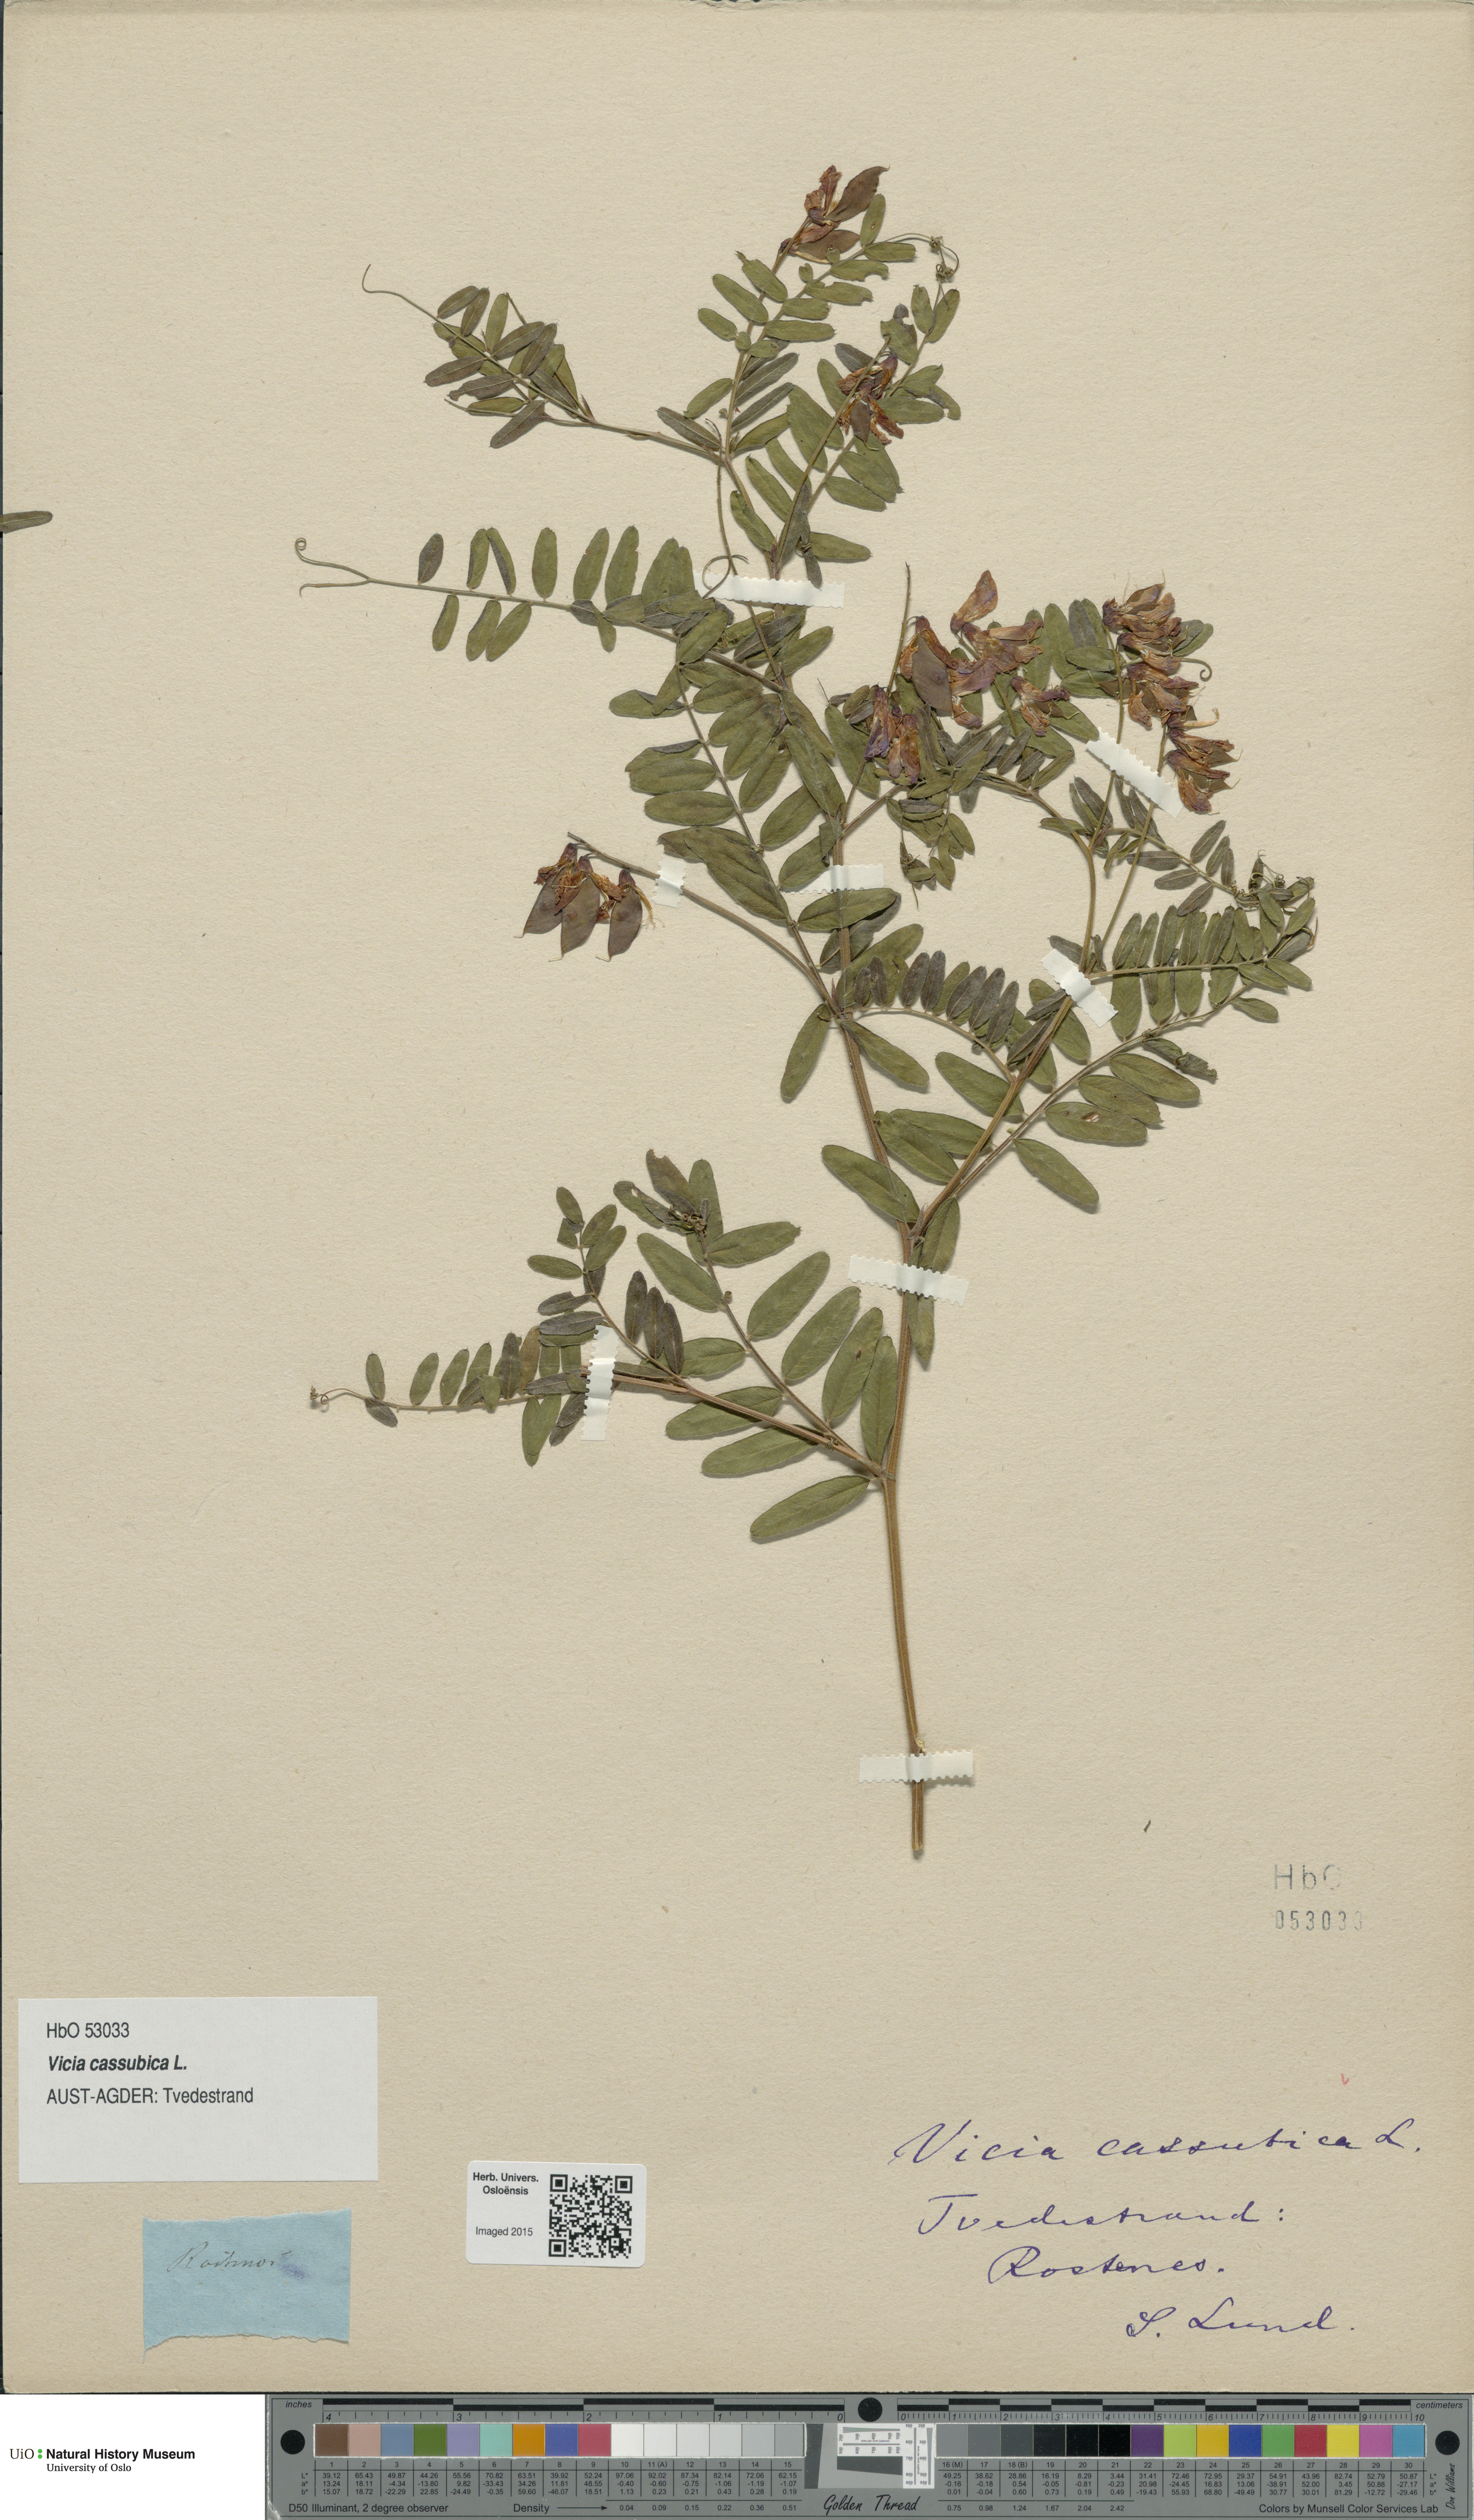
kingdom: Plantae
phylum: Tracheophyta
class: Magnoliopsida
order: Fabales
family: Fabaceae
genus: Vicia
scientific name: Vicia cassubica
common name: Danzig vetch
